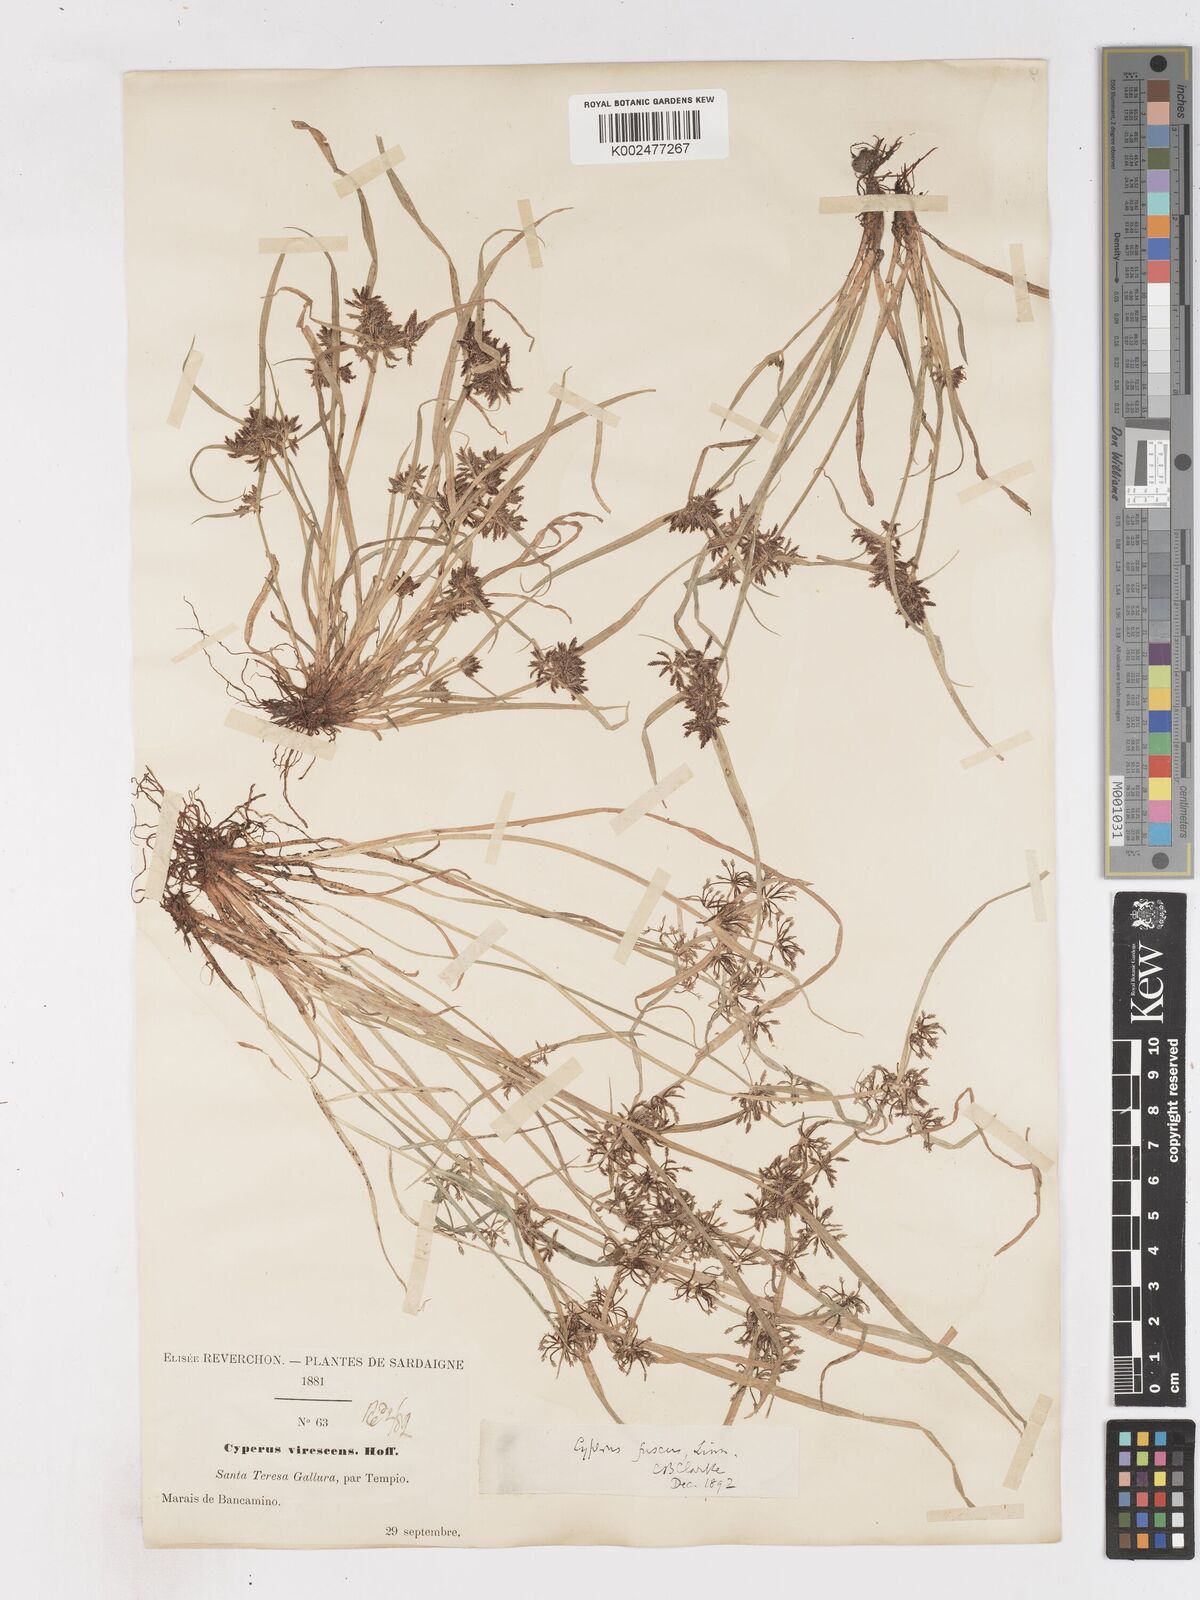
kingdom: Plantae
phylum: Tracheophyta
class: Liliopsida
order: Poales
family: Cyperaceae
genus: Cyperus
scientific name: Cyperus fuscus
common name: Brown galingale
